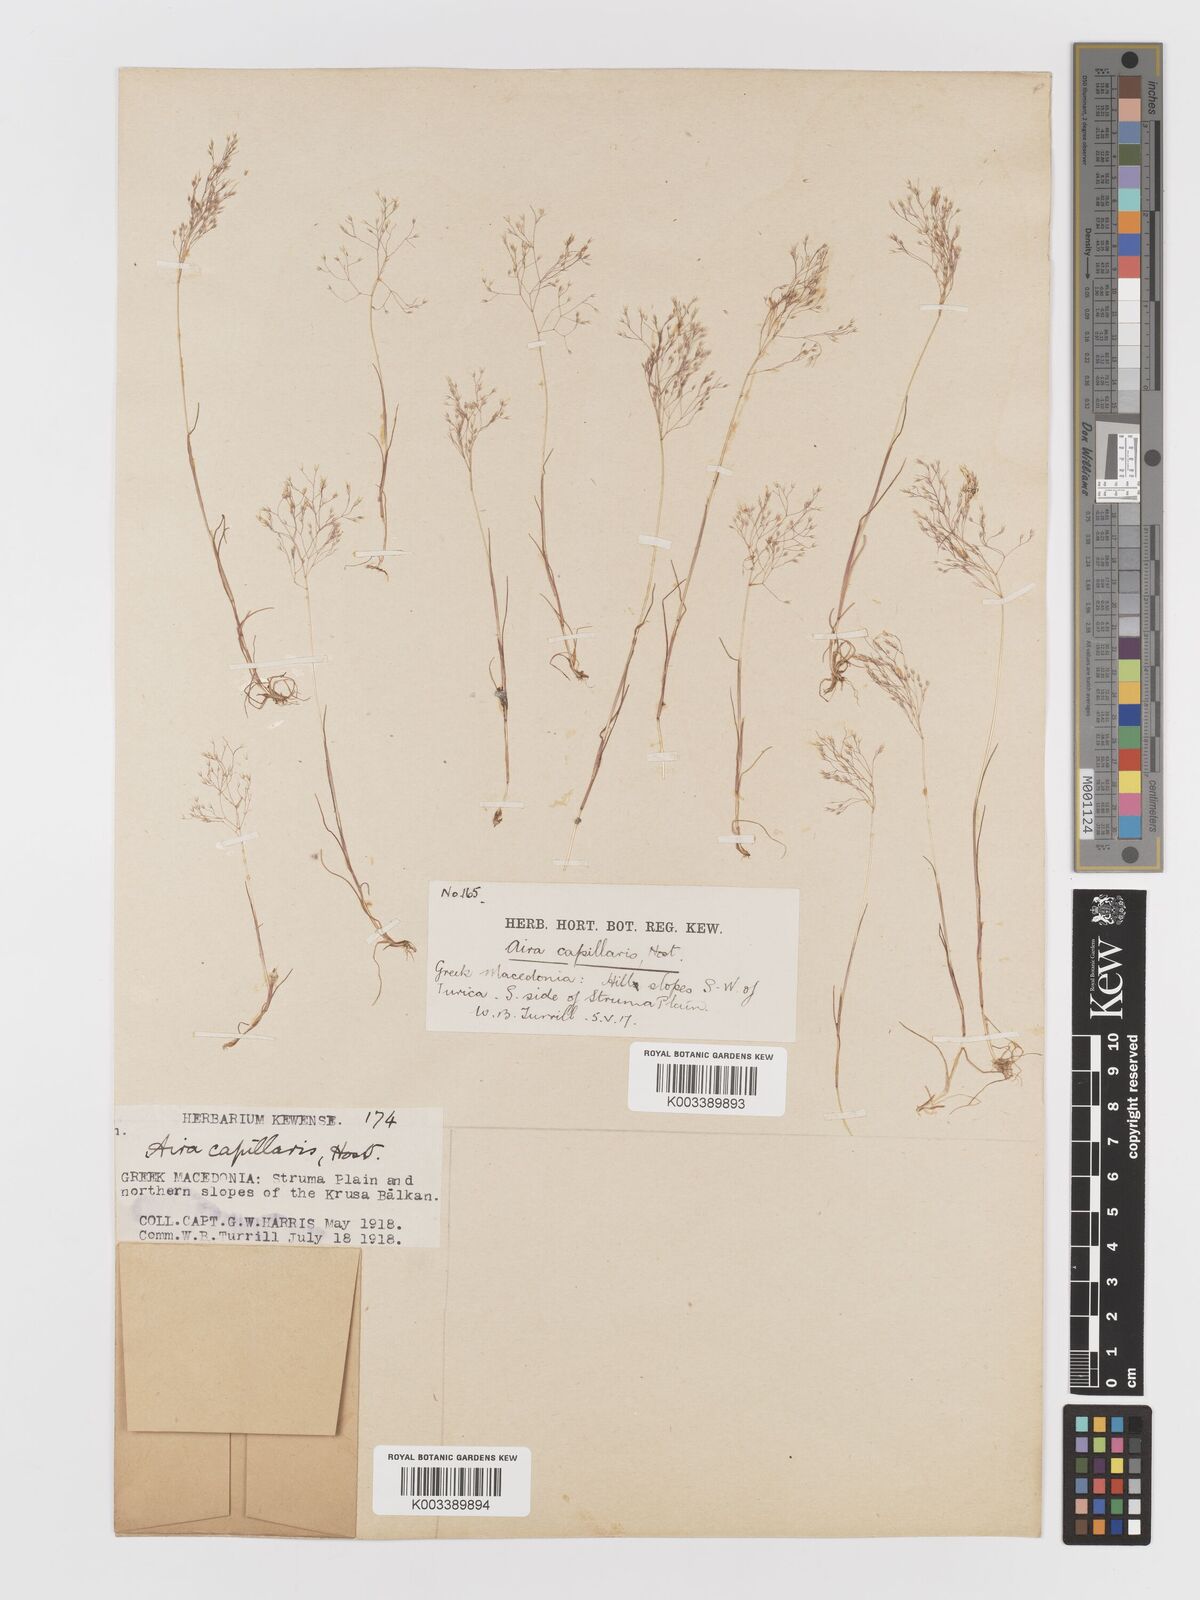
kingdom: Plantae
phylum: Tracheophyta
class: Liliopsida
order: Poales
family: Poaceae
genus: Aira
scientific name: Aira elegans
